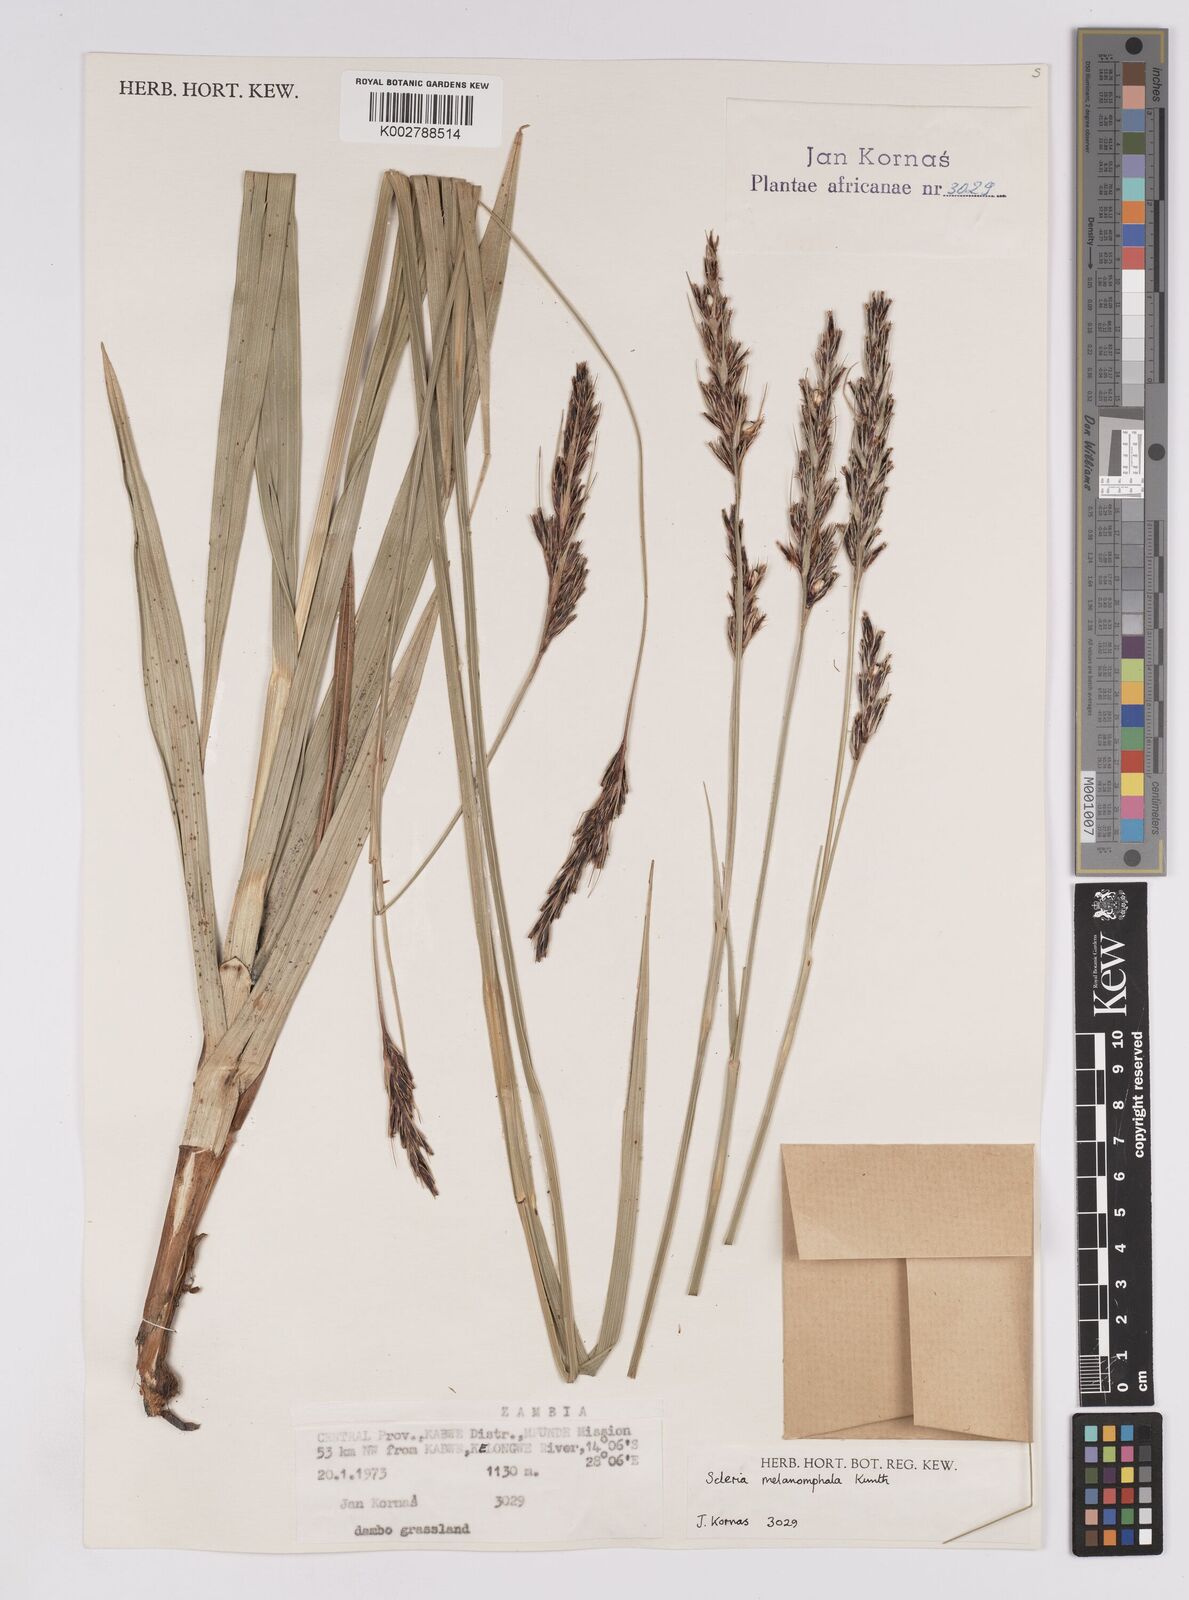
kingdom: Plantae
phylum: Tracheophyta
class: Liliopsida
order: Poales
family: Cyperaceae
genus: Scleria
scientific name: Scleria melanomphala
